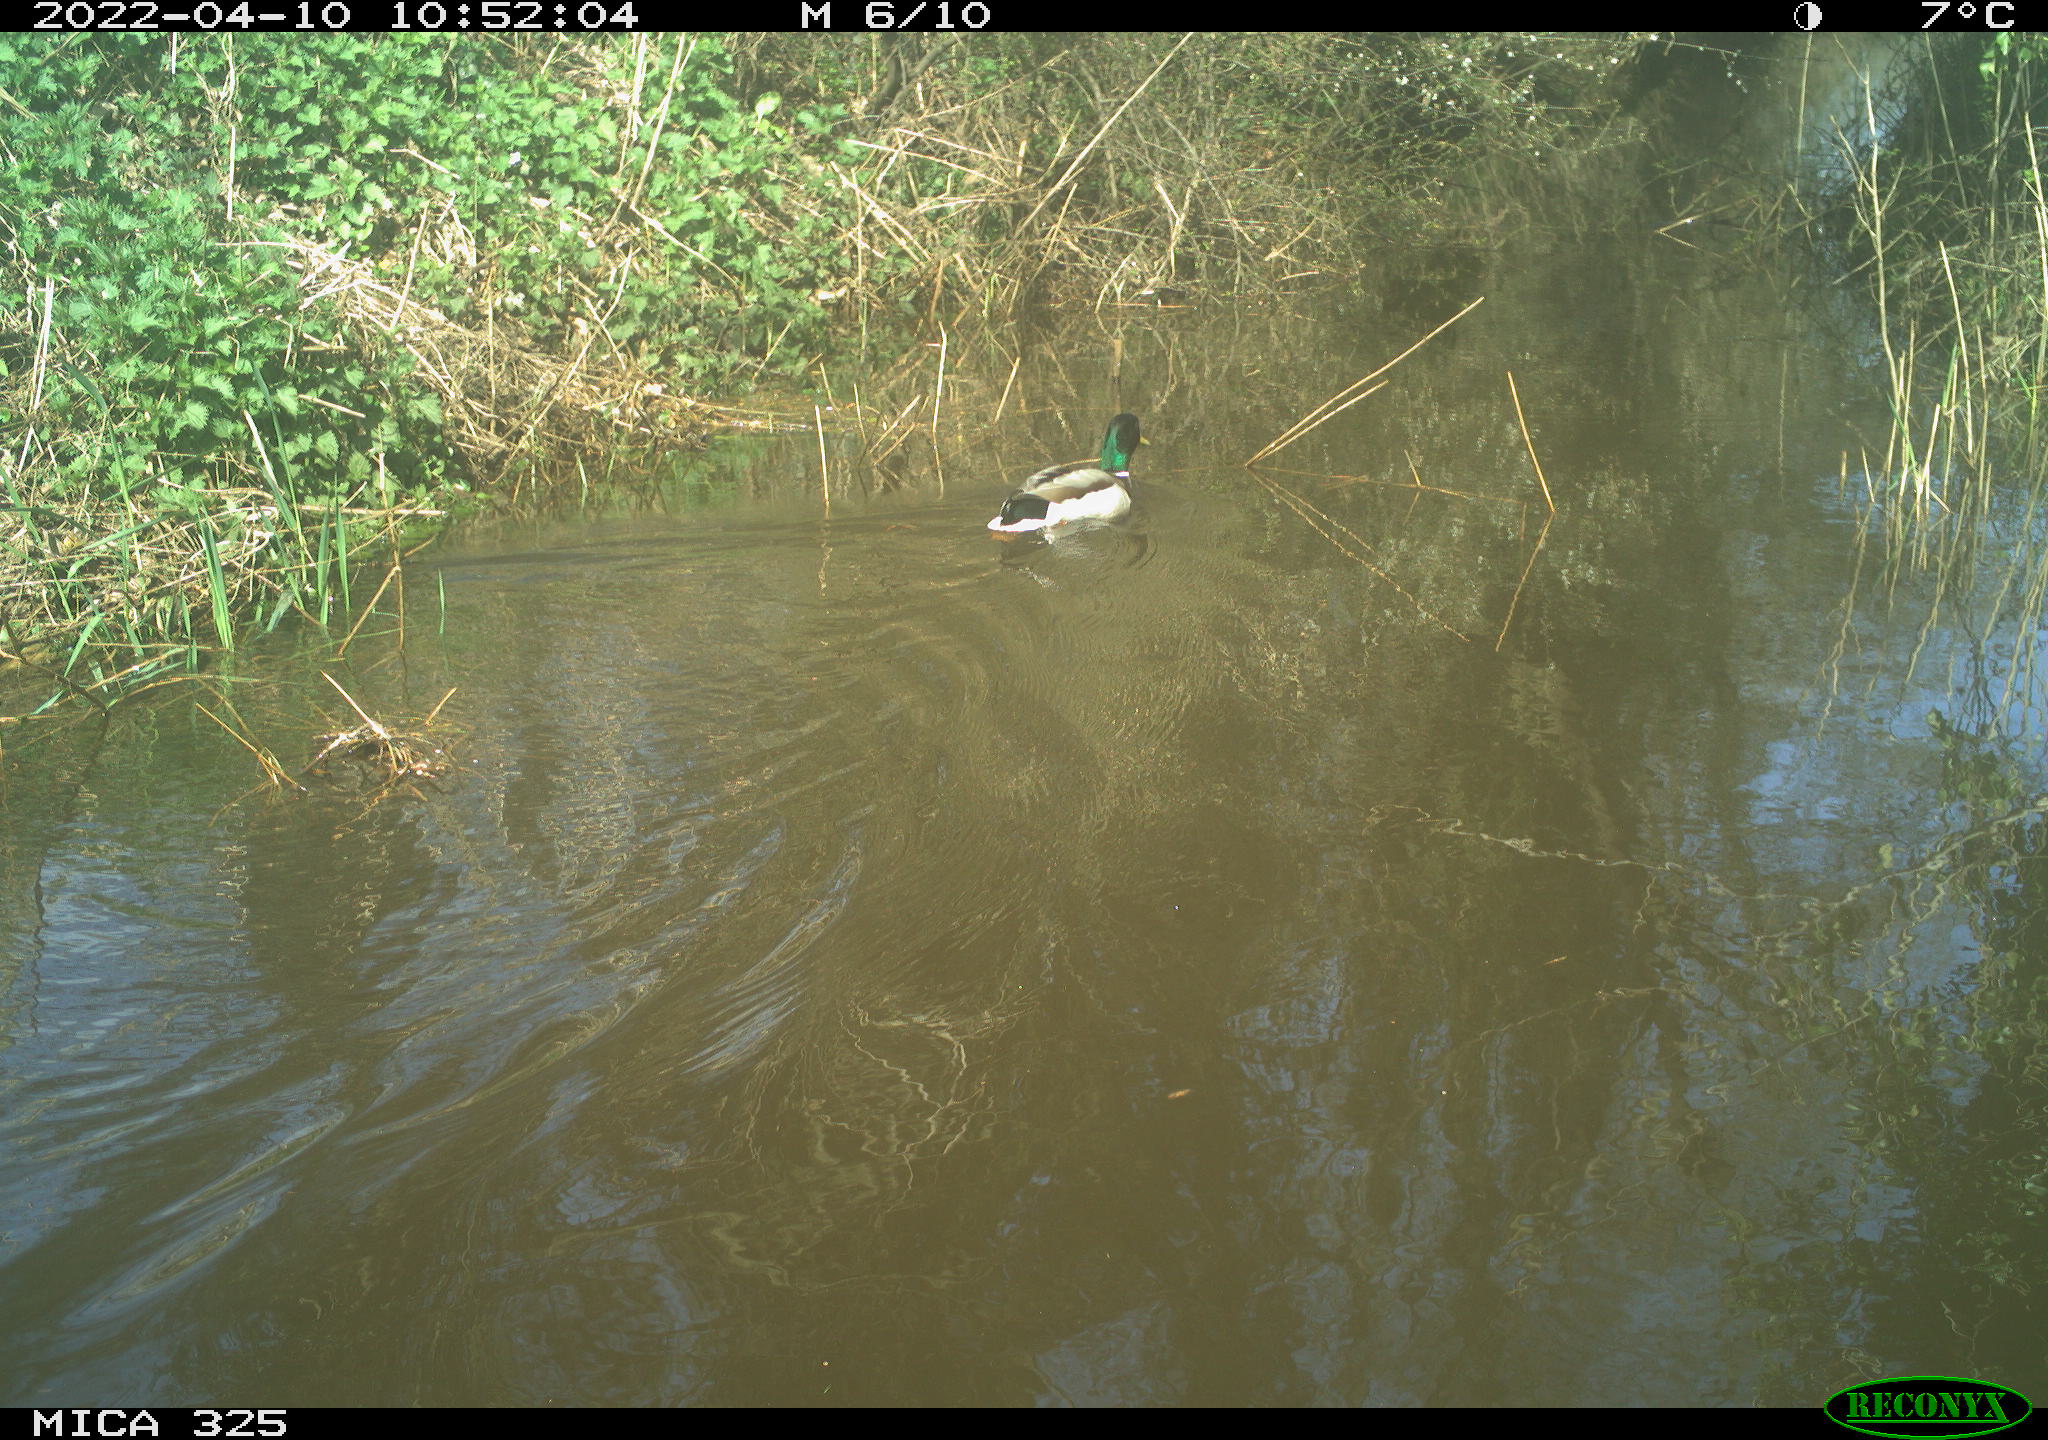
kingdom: Animalia
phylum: Chordata
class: Aves
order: Anseriformes
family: Anatidae
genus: Anas
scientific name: Anas platyrhynchos
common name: Mallard
